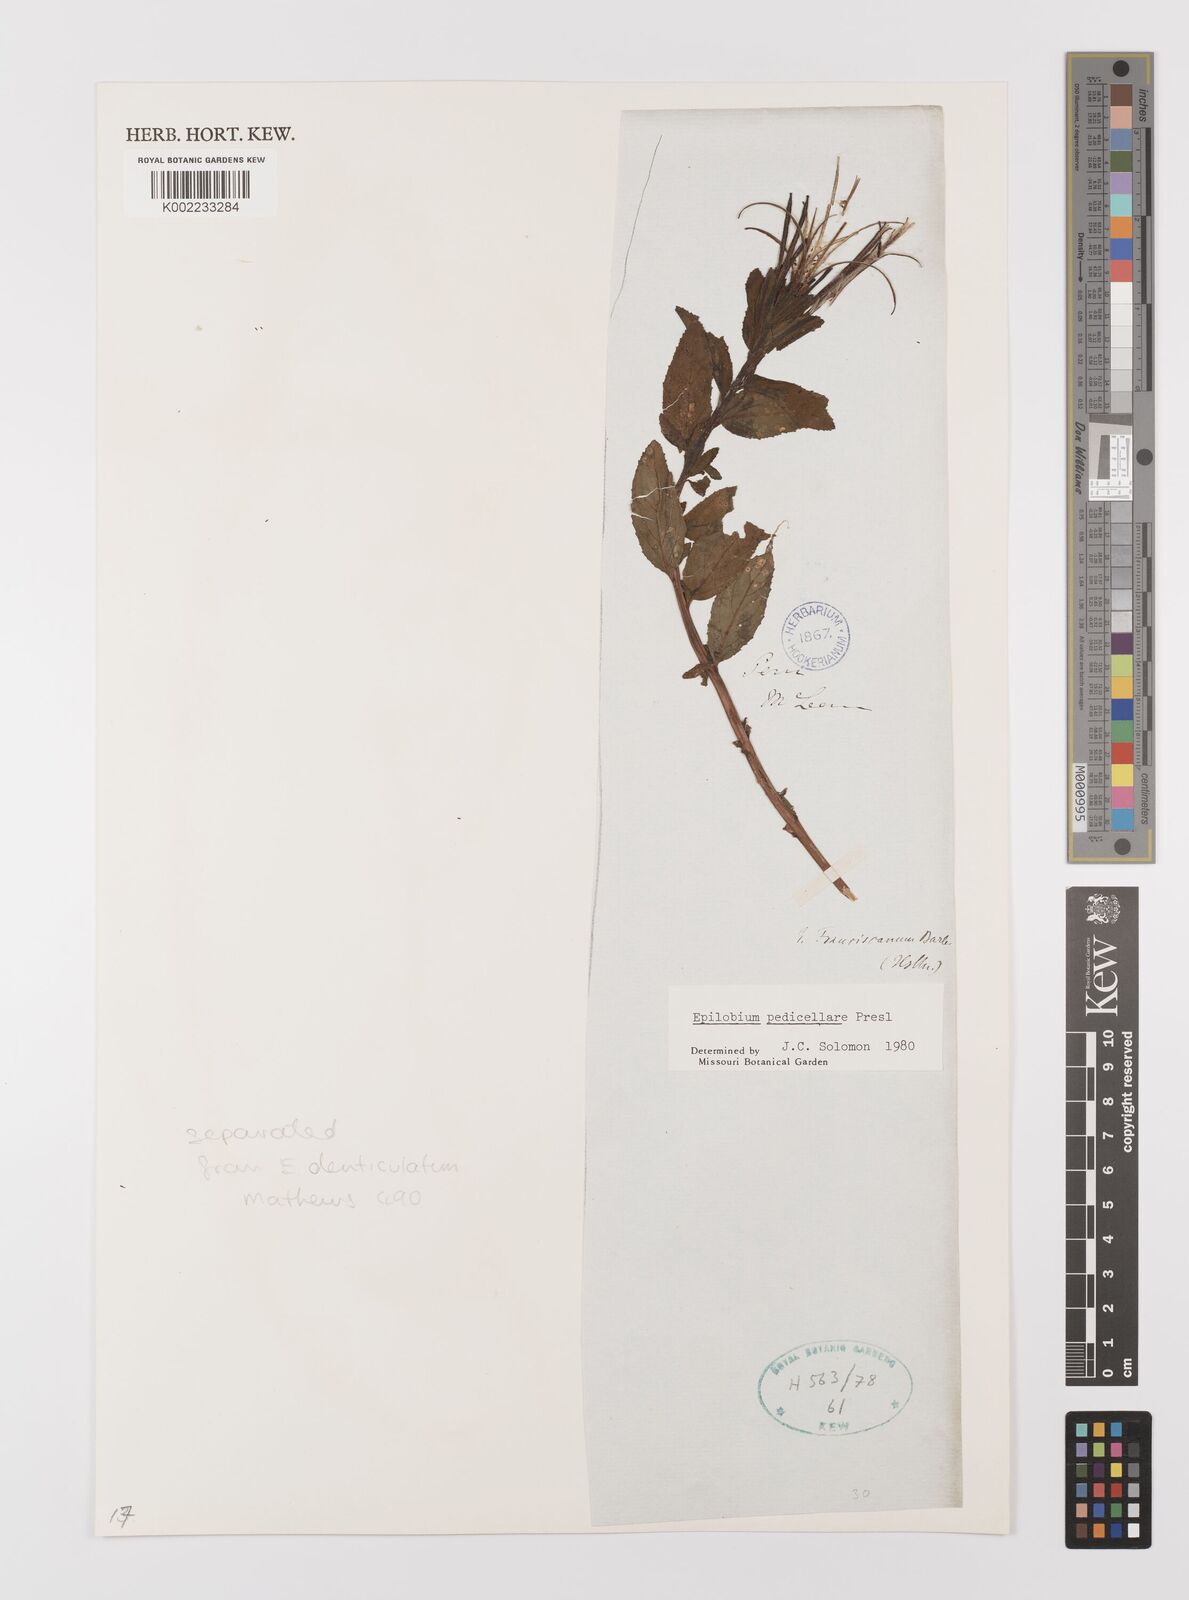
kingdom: Plantae
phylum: Tracheophyta
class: Magnoliopsida
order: Myrtales
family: Onagraceae
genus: Epilobium
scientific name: Epilobium pedicellare
